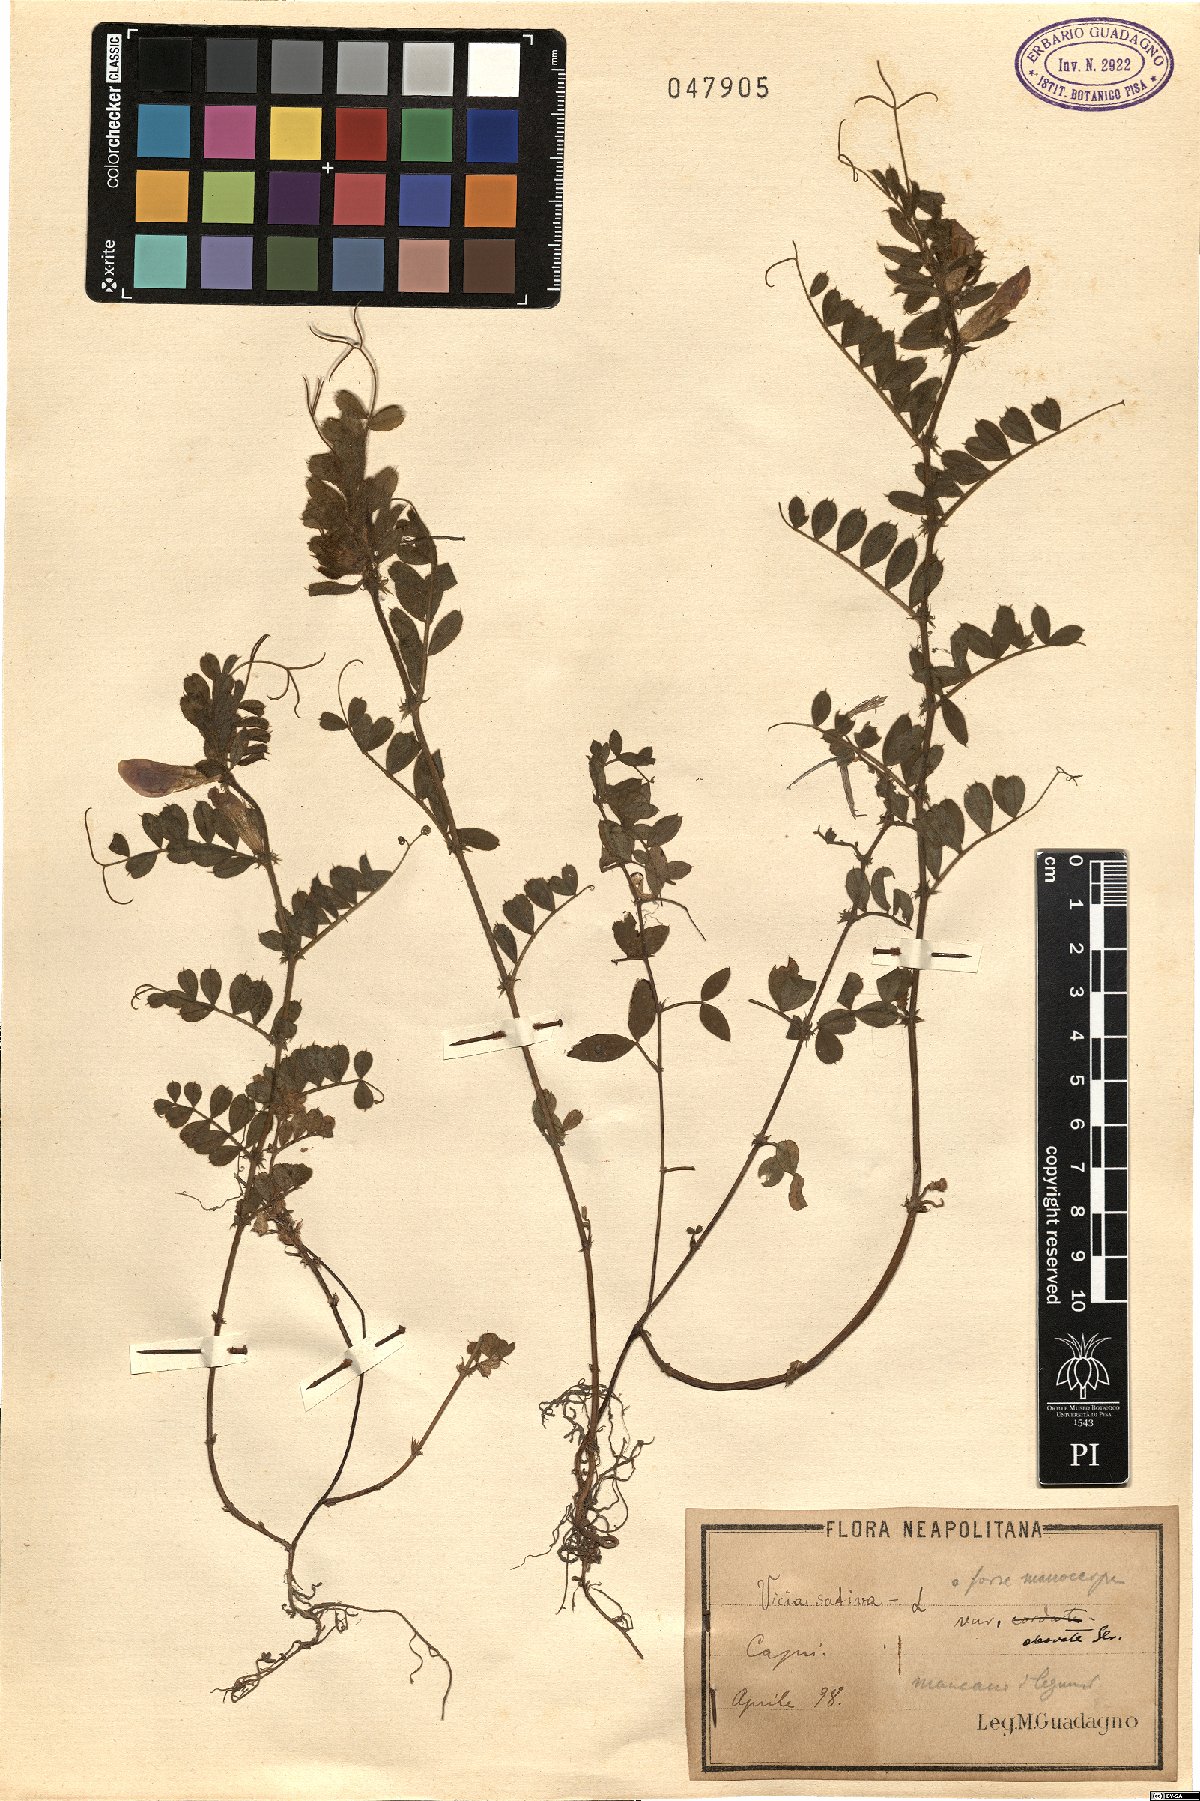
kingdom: Plantae
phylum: Tracheophyta
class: Magnoliopsida
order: Fabales
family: Fabaceae
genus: Vicia
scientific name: Vicia sativa
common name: Garden vetch
